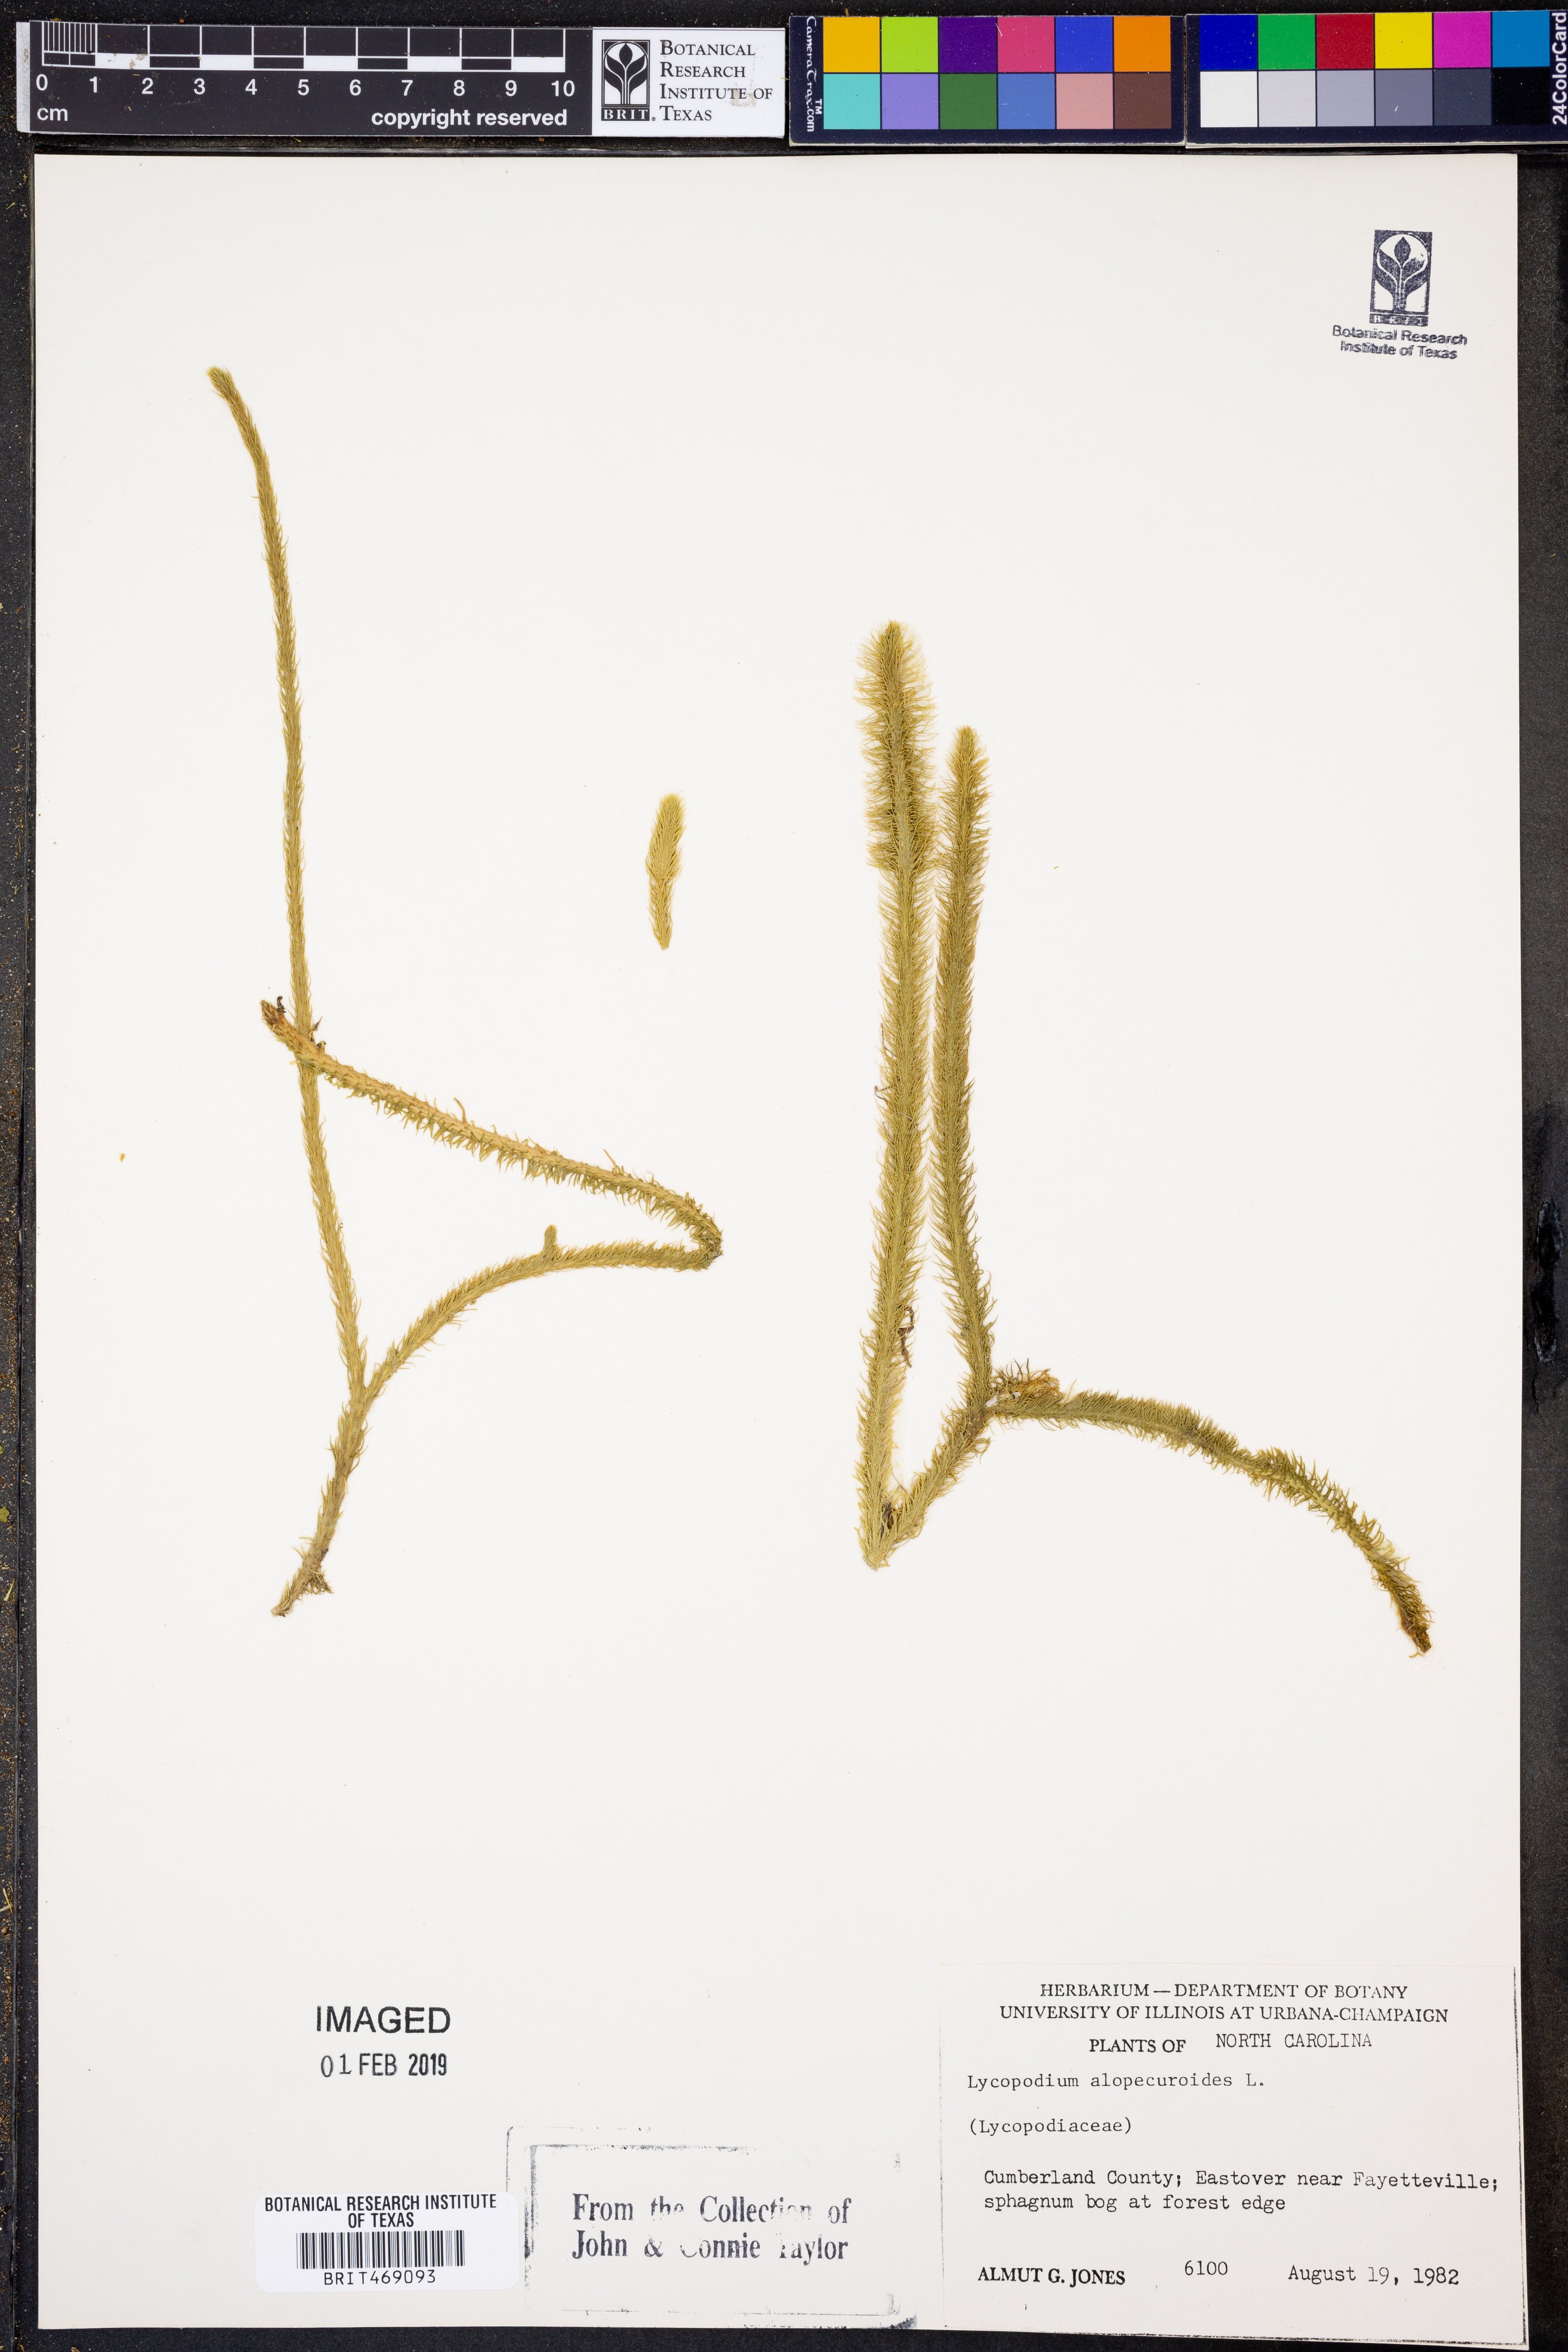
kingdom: Plantae
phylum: Tracheophyta
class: Lycopodiopsida
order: Lycopodiales
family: Lycopodiaceae
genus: Lycopodiella
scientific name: Lycopodiella alopecuroides
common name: Foxtail clubmoss
